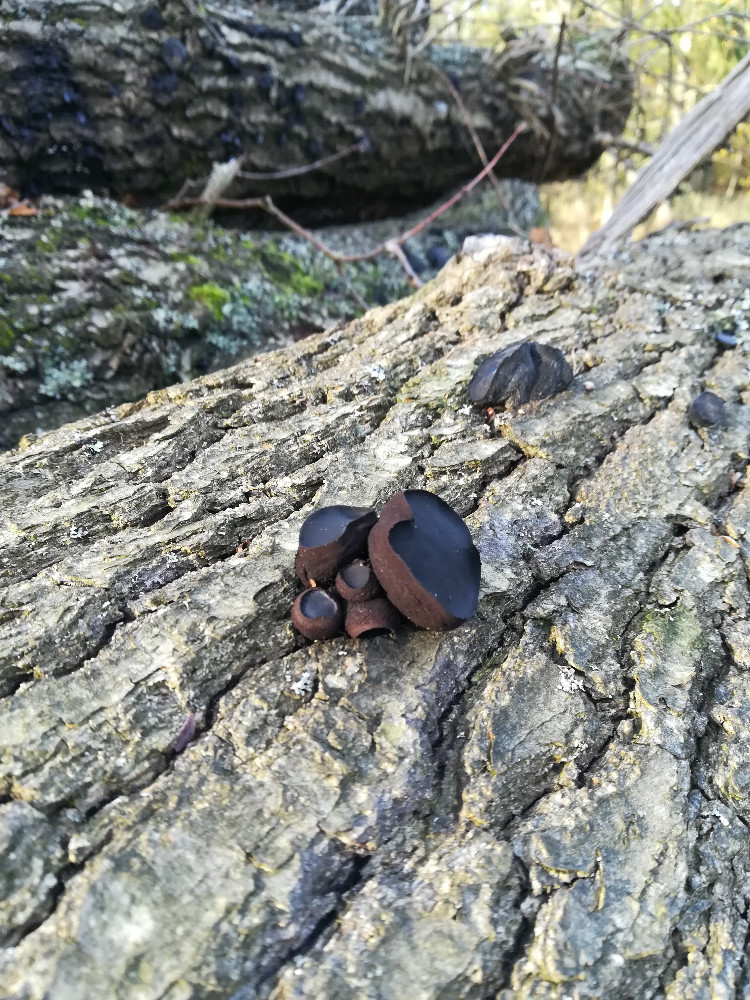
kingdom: Fungi
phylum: Ascomycota
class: Leotiomycetes
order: Phacidiales
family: Phacidiaceae
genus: Bulgaria
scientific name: Bulgaria inquinans
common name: afsmittende topsvamp
